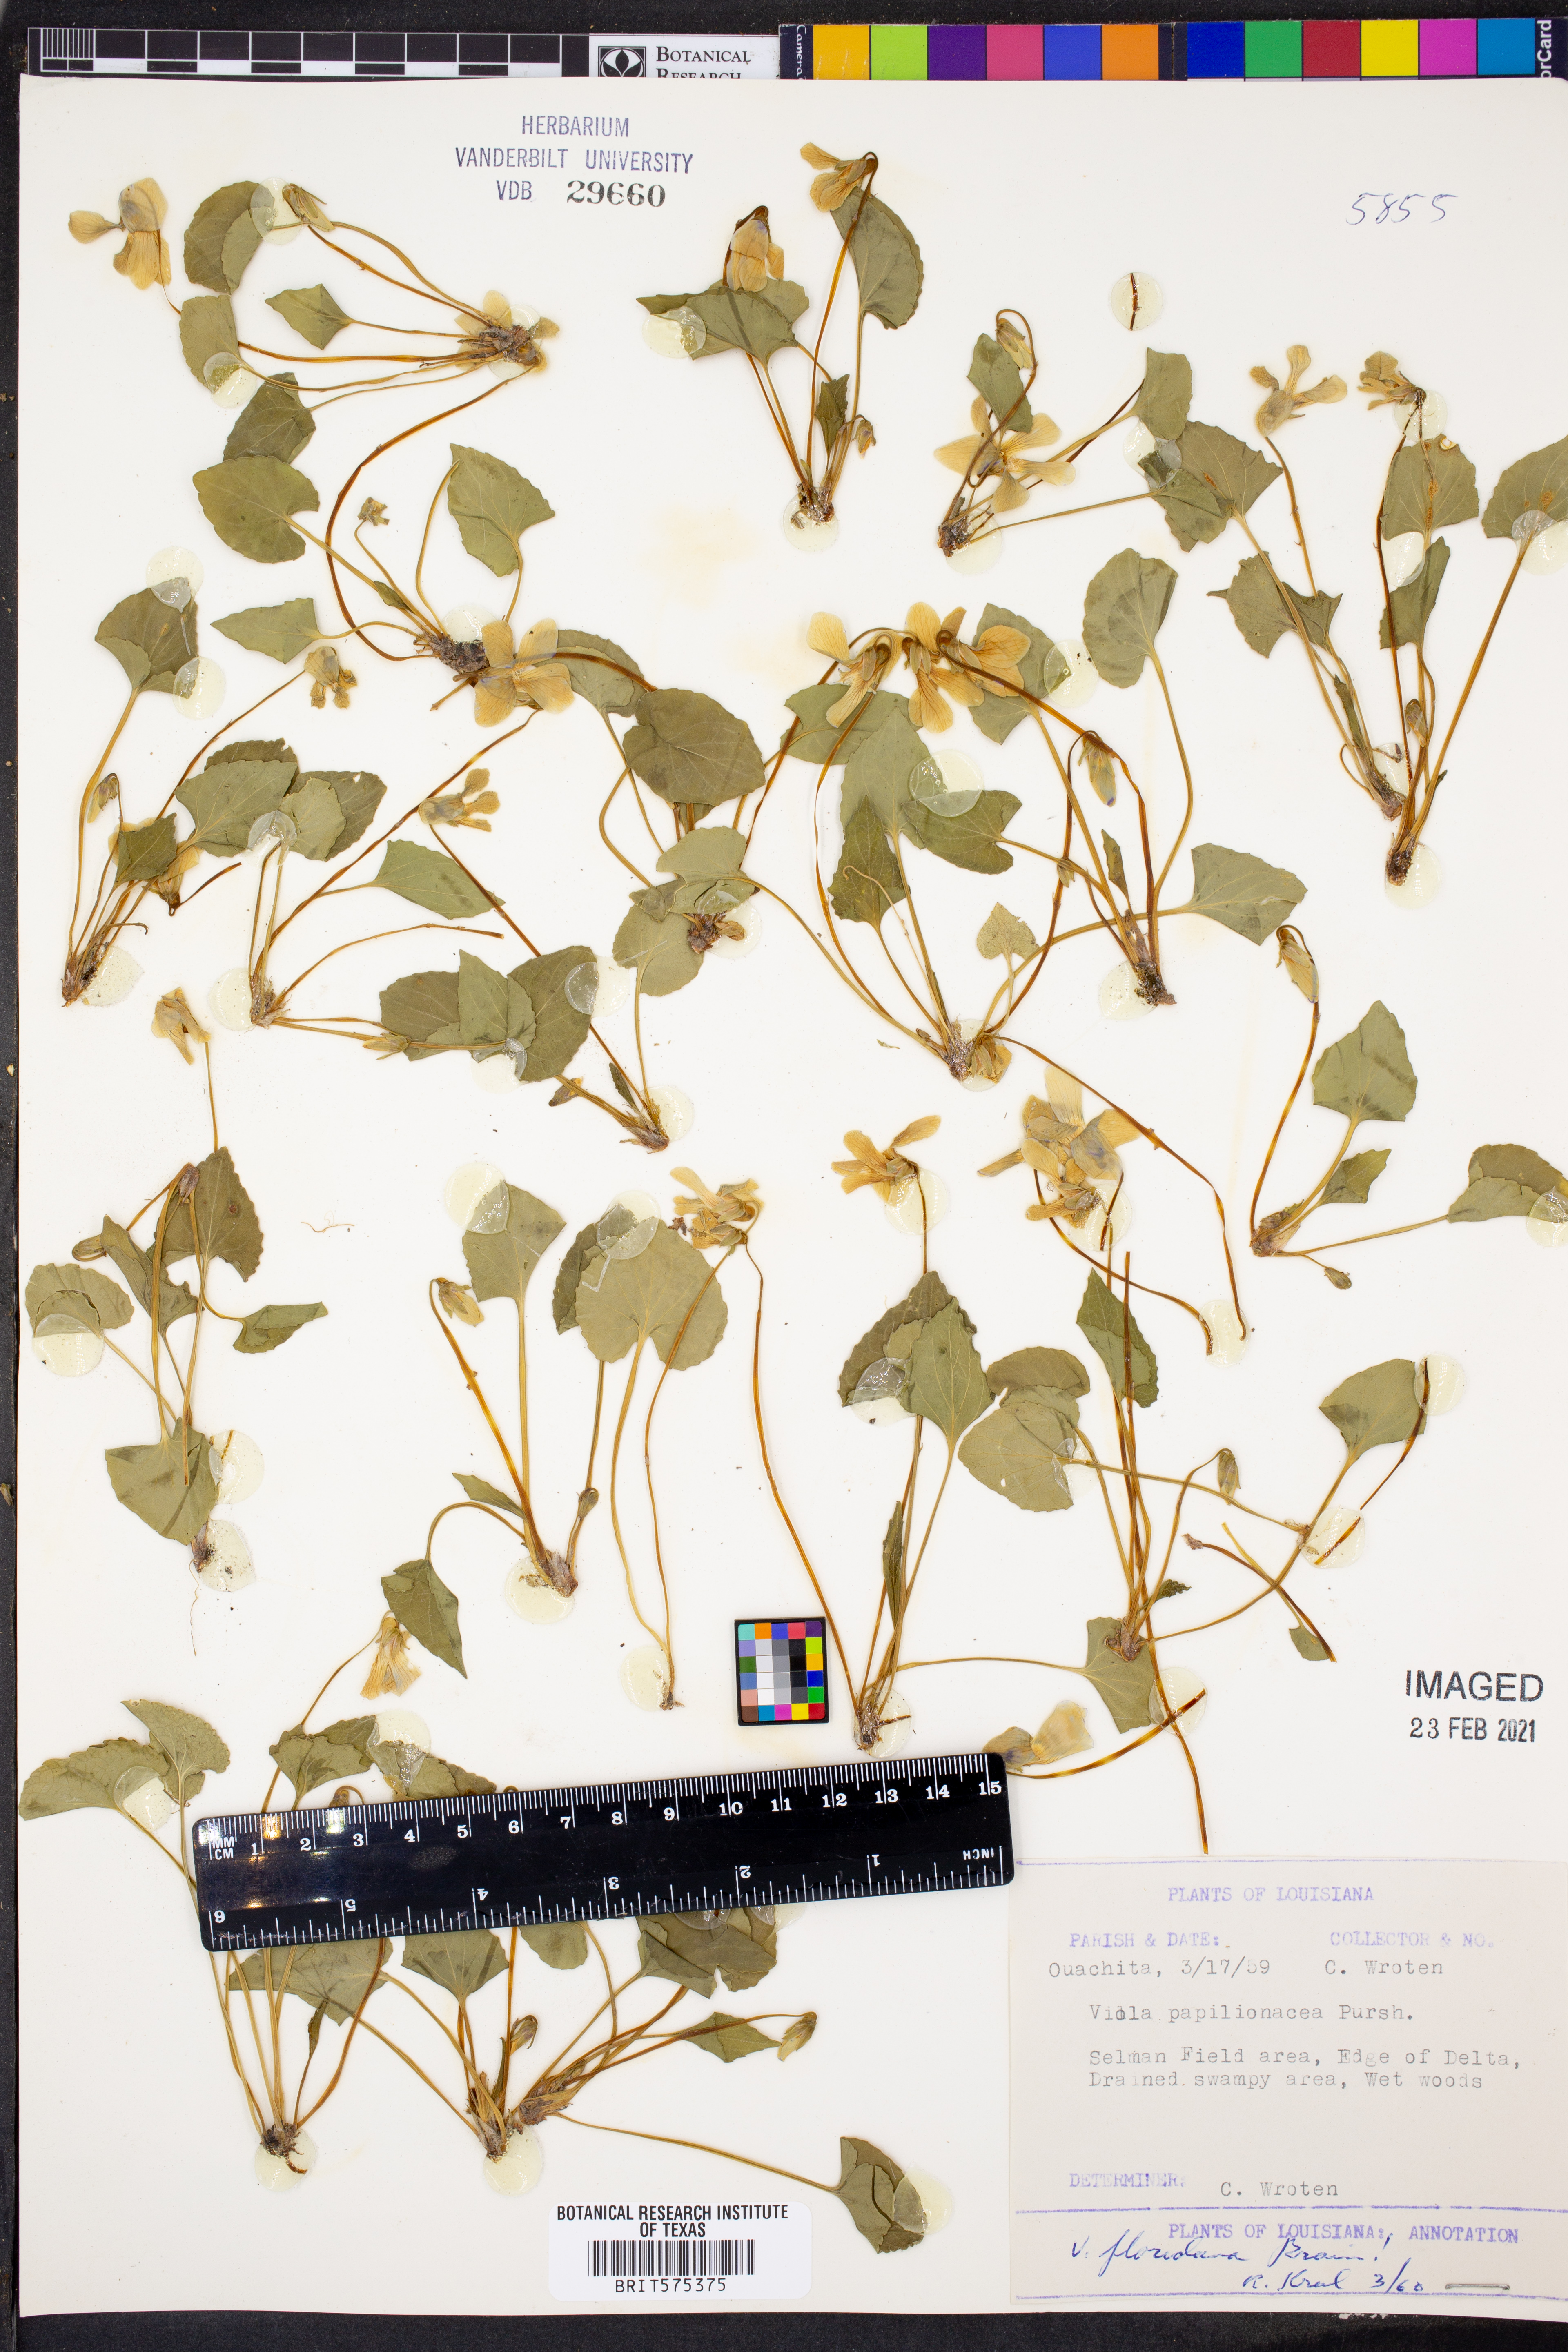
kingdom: Plantae
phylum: Tracheophyta
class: Magnoliopsida
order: Malpighiales
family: Violaceae
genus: Viola
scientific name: Viola floridana
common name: Florida violet
